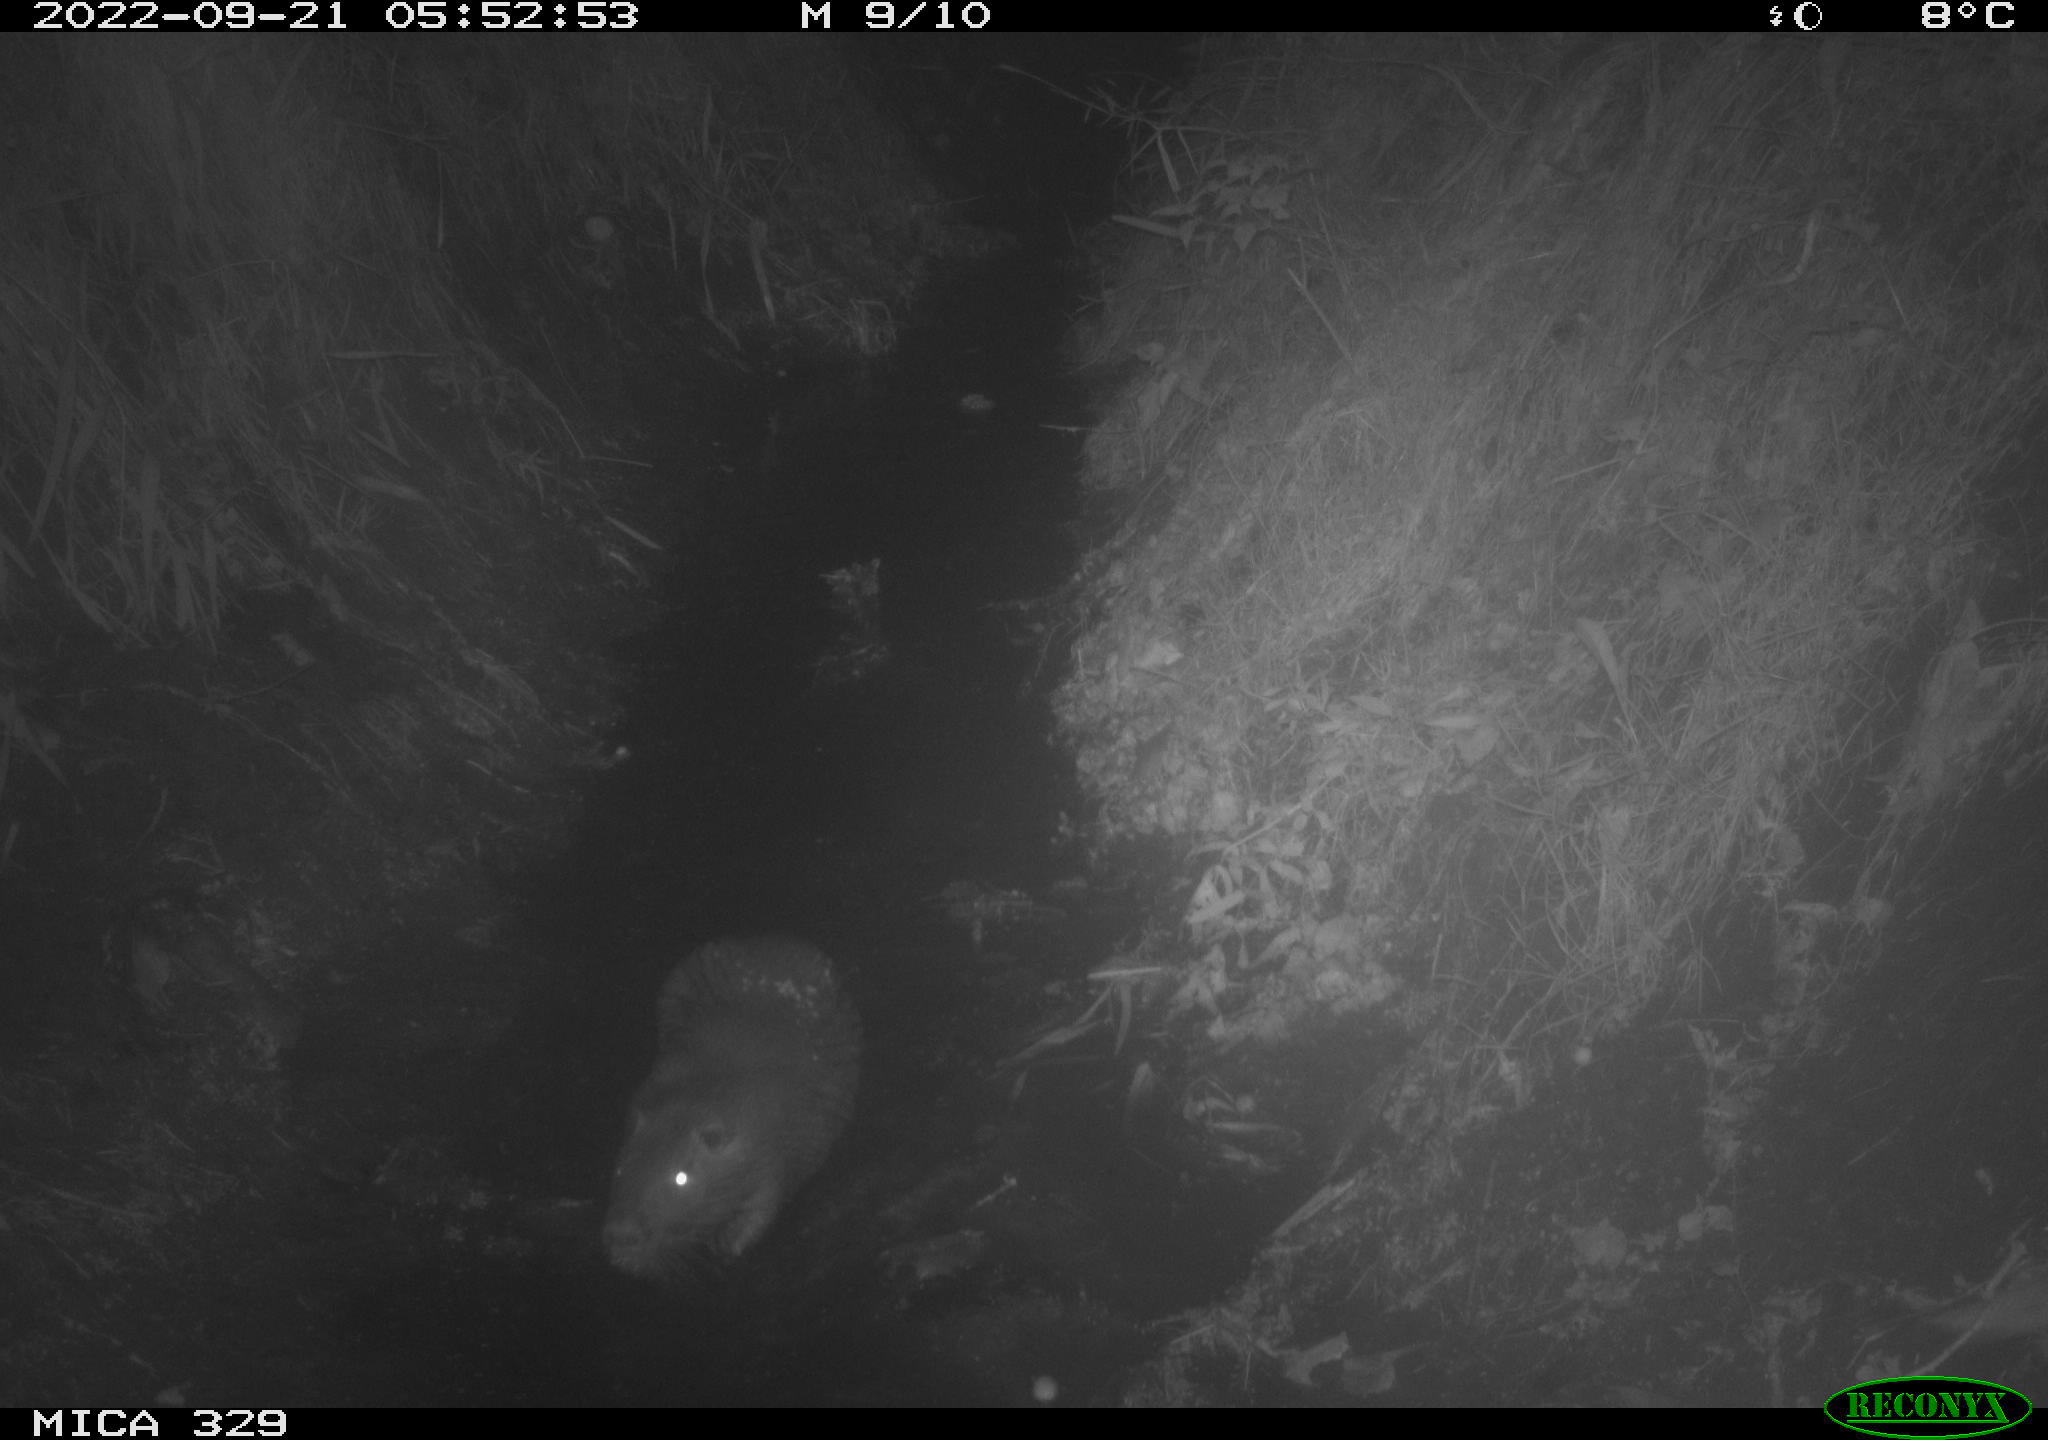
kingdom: Animalia
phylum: Chordata
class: Mammalia
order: Rodentia
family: Myocastoridae
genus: Myocastor
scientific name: Myocastor coypus
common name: Coypu
